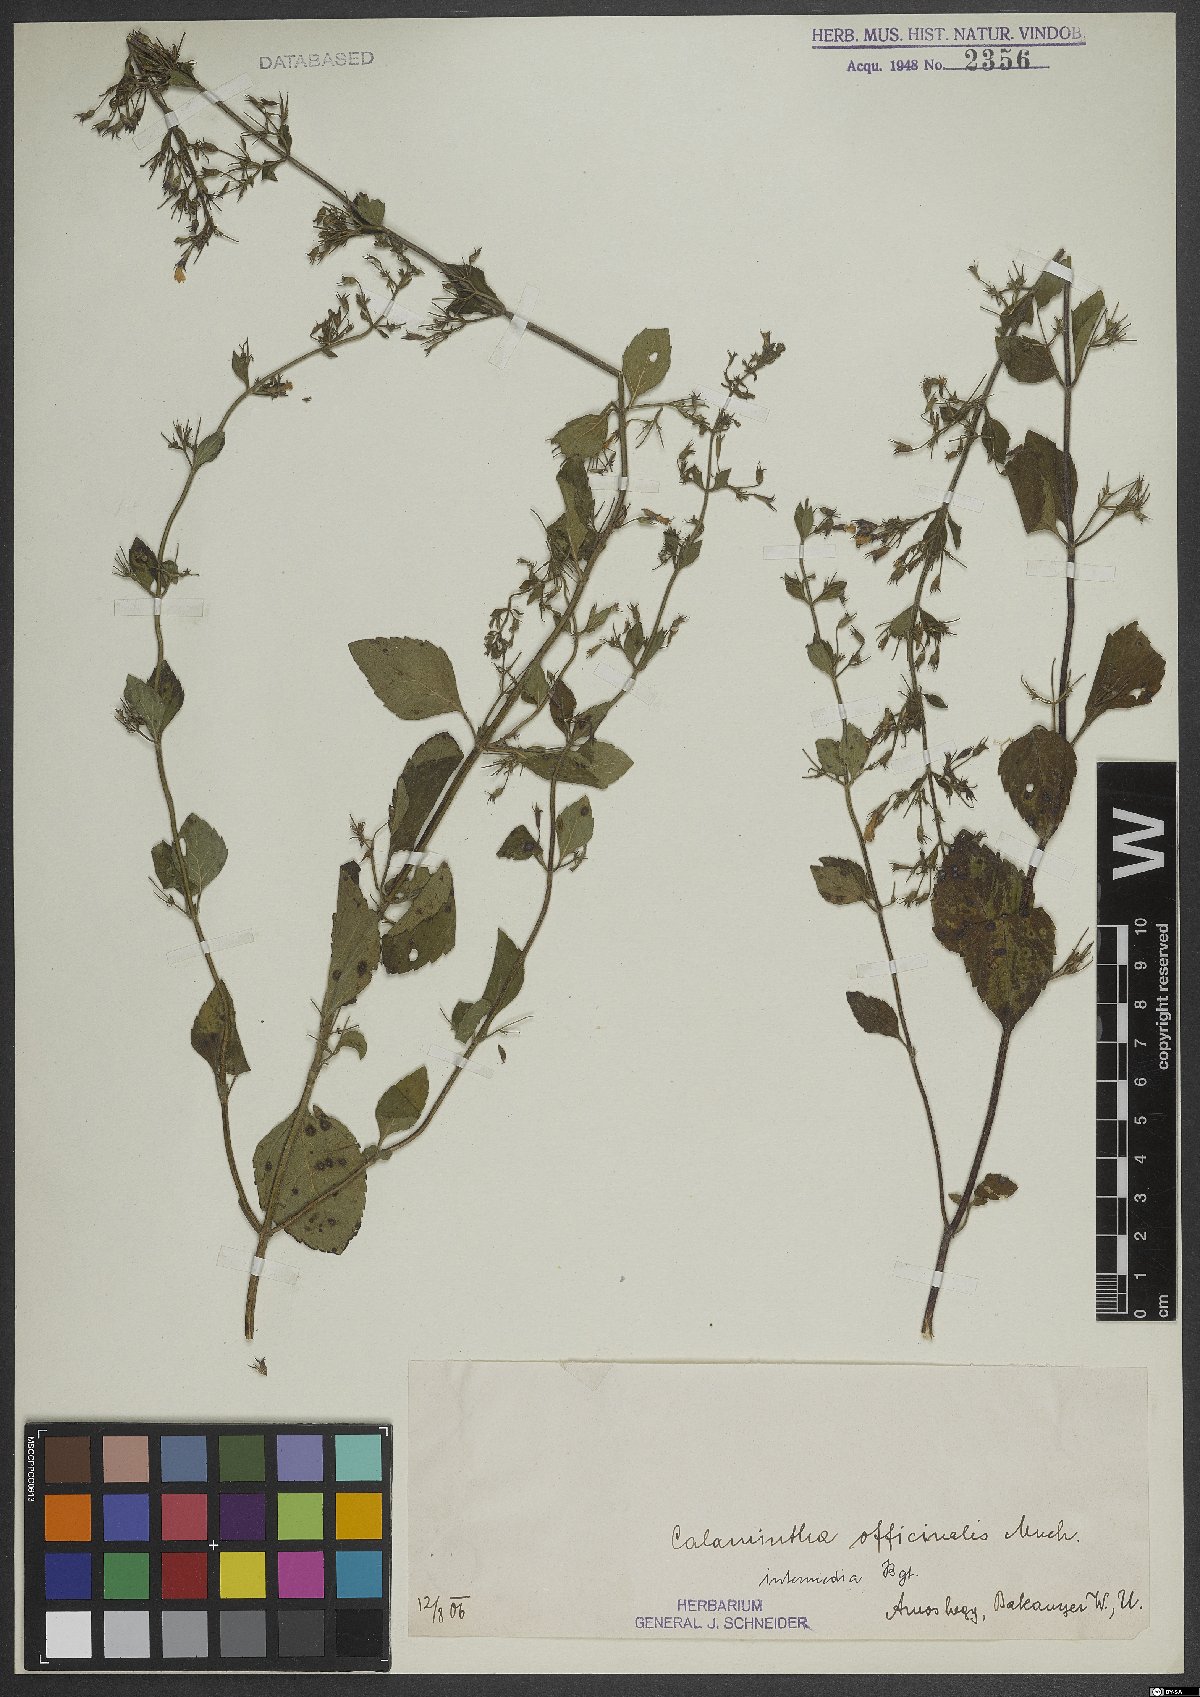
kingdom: Plantae
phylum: Tracheophyta
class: Magnoliopsida
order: Lamiales
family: Lamiaceae
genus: Clinopodium
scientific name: Clinopodium nepeta
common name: Lesser calamint
